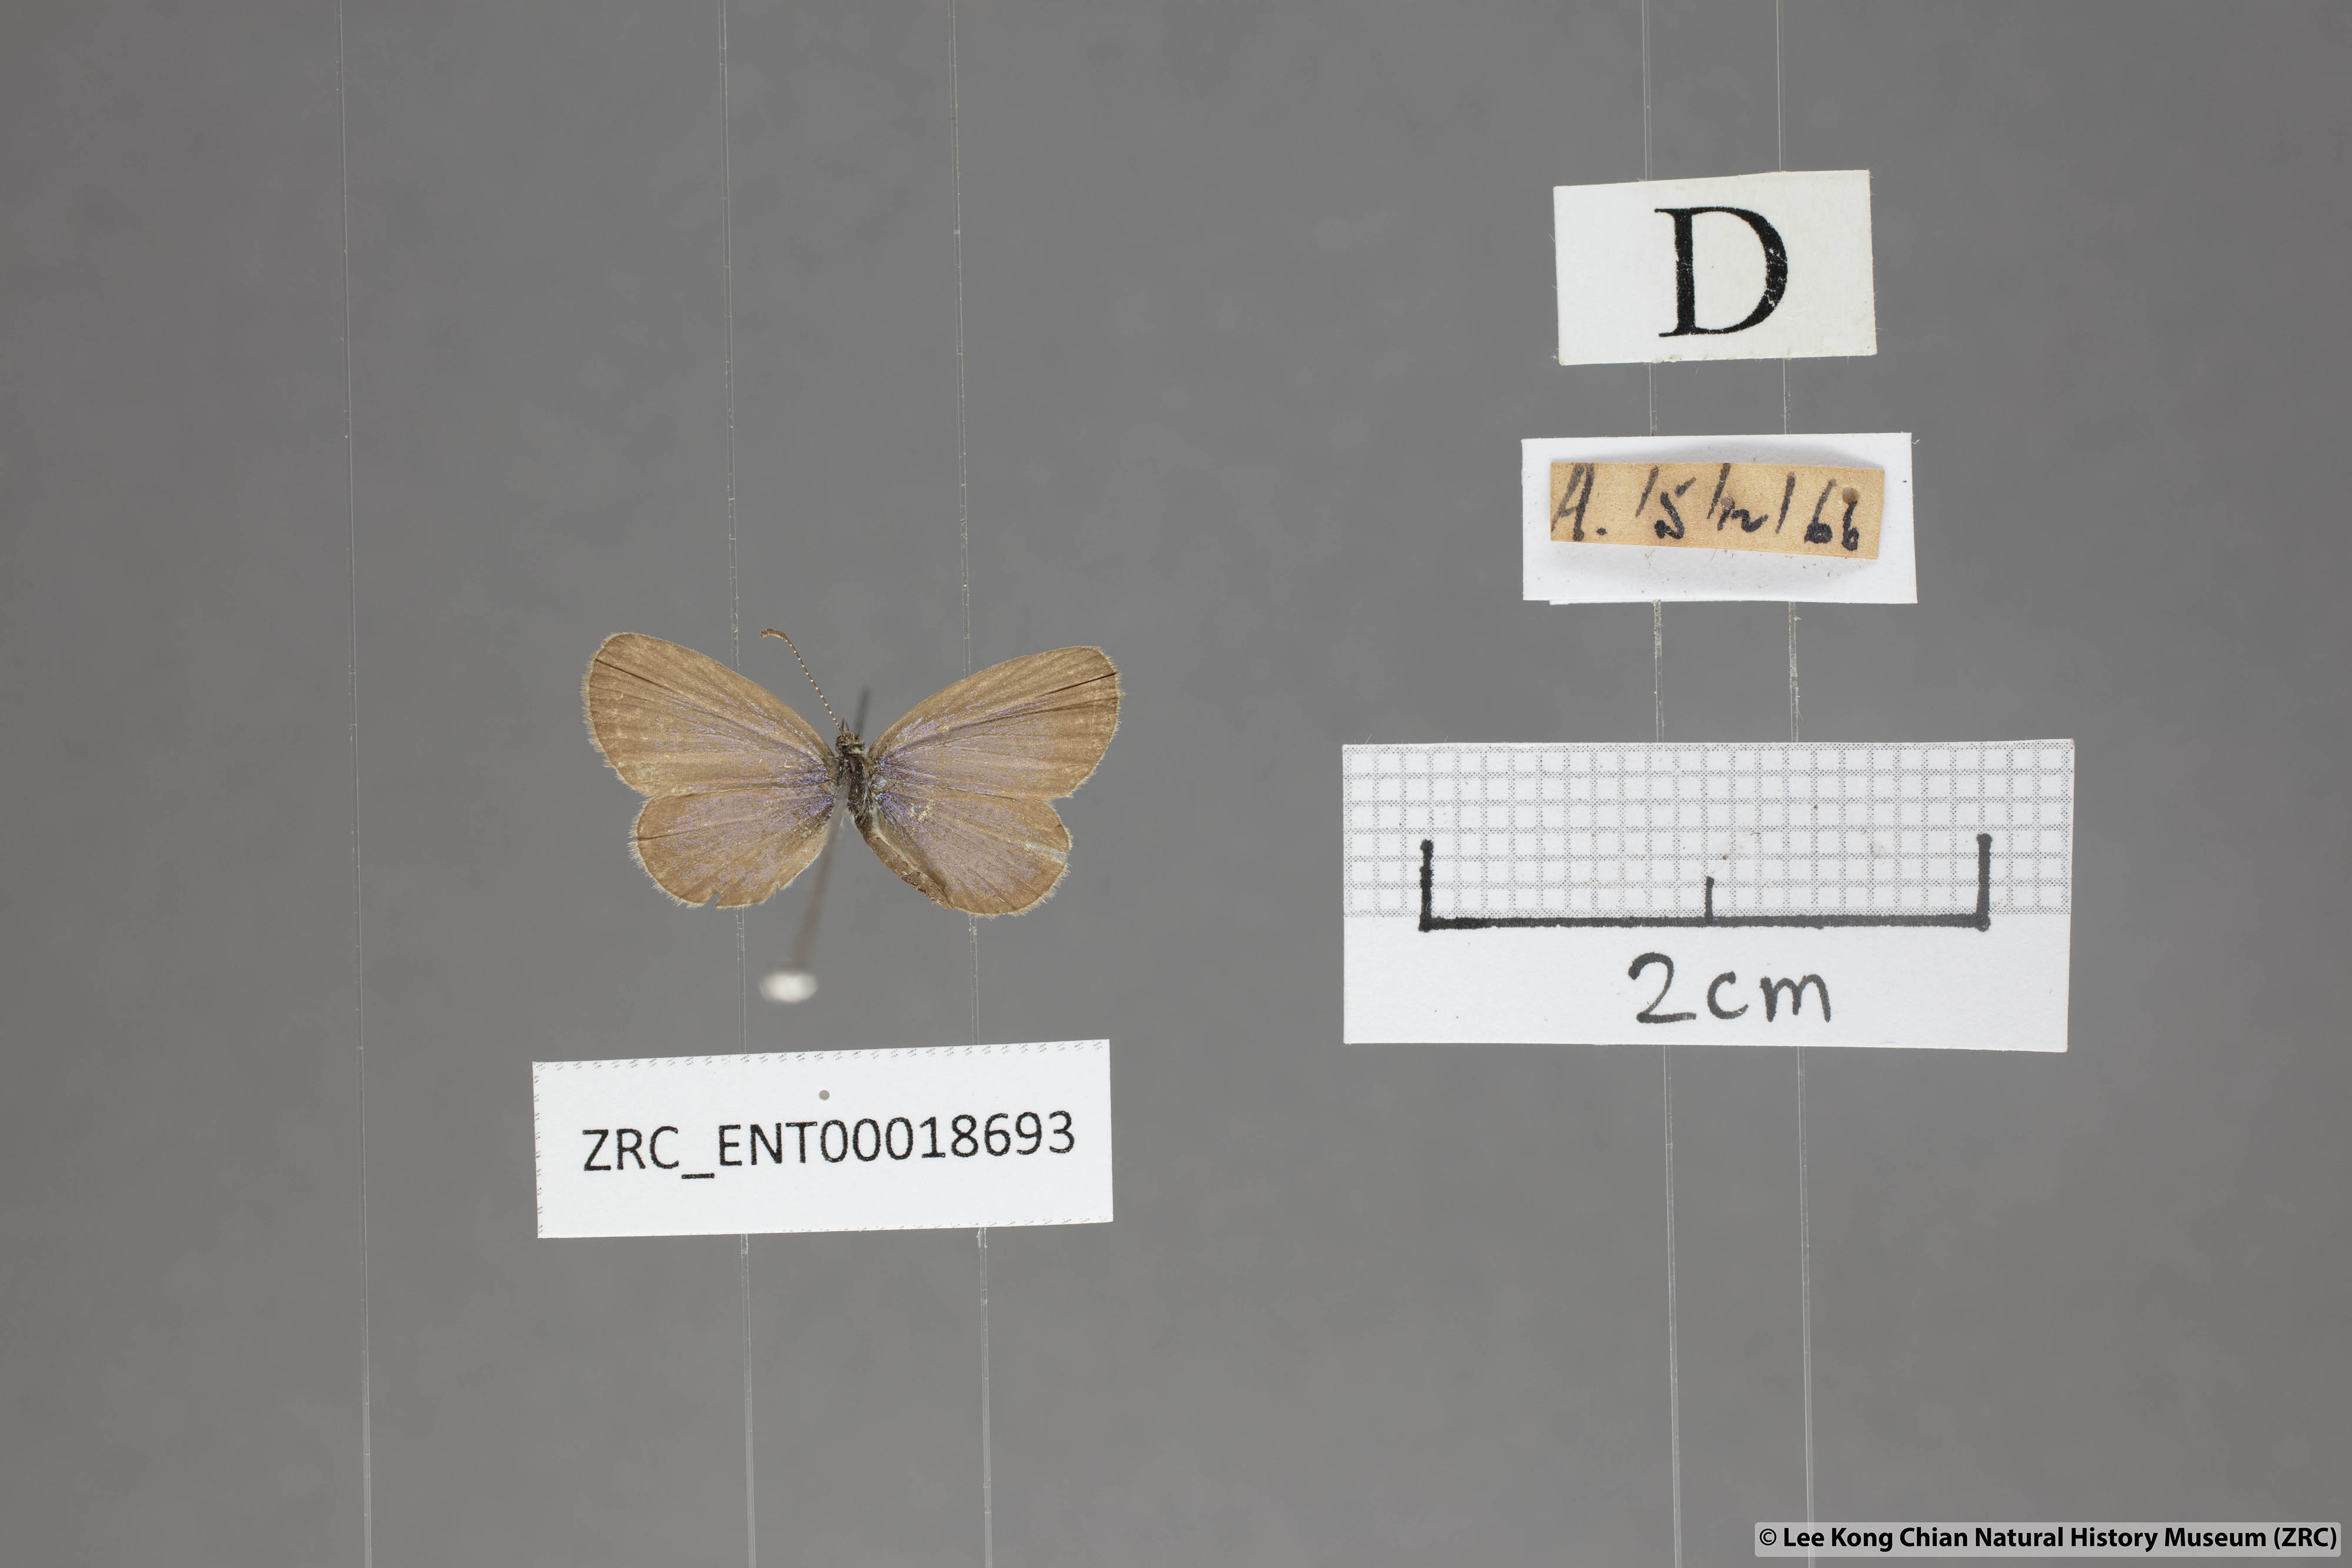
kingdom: Animalia
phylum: Arthropoda
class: Insecta
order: Lepidoptera
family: Lycaenidae
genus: Zizula
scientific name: Zizula hylax
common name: Gaika blue
